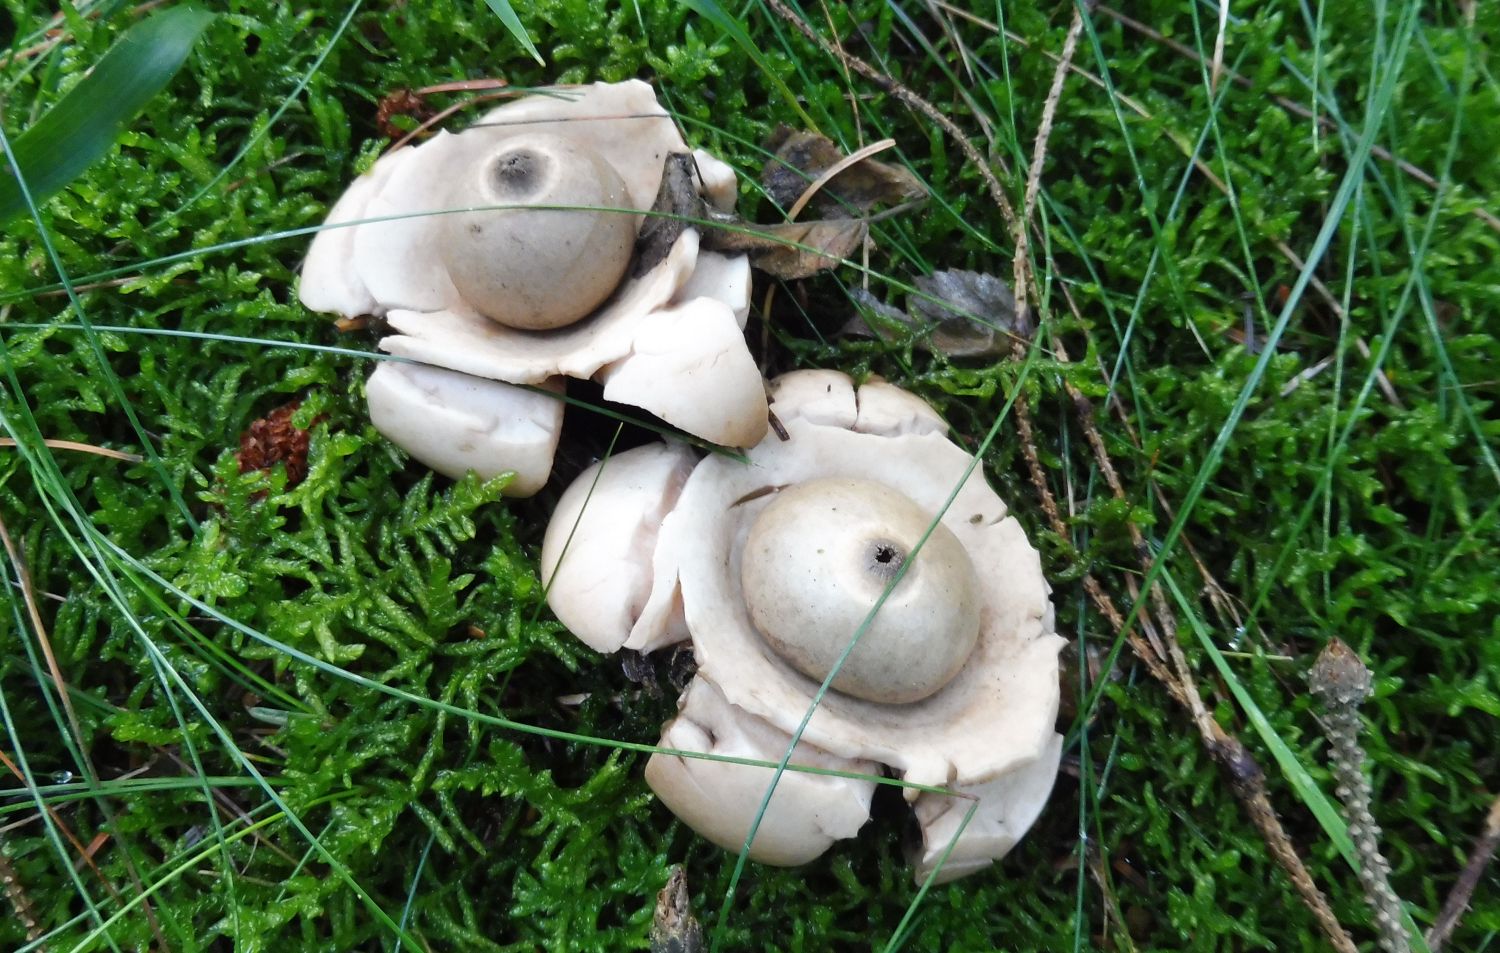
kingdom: Fungi
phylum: Basidiomycota
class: Agaricomycetes
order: Geastrales
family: Geastraceae
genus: Geastrum
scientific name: Geastrum michelianum
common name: kødet stjernebold
